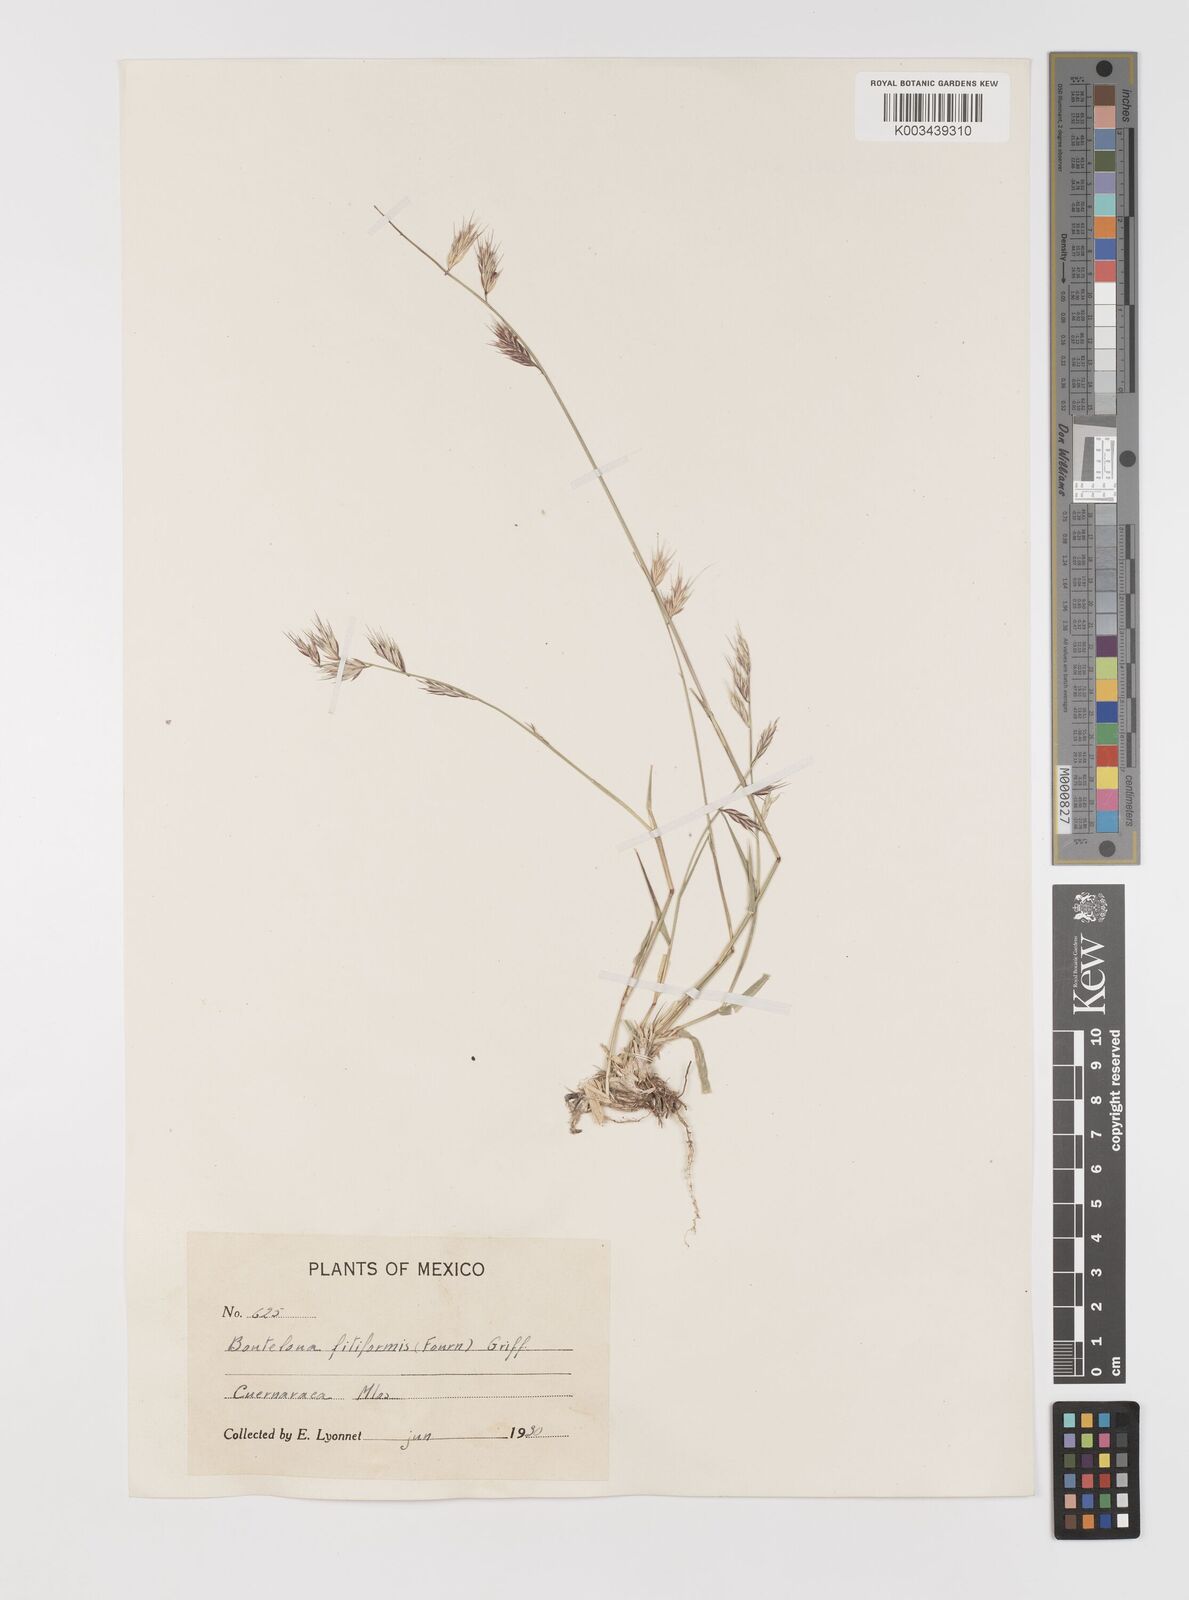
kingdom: Plantae
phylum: Tracheophyta
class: Liliopsida
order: Poales
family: Poaceae
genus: Bouteloua
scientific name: Bouteloua repens
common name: Slender grama
